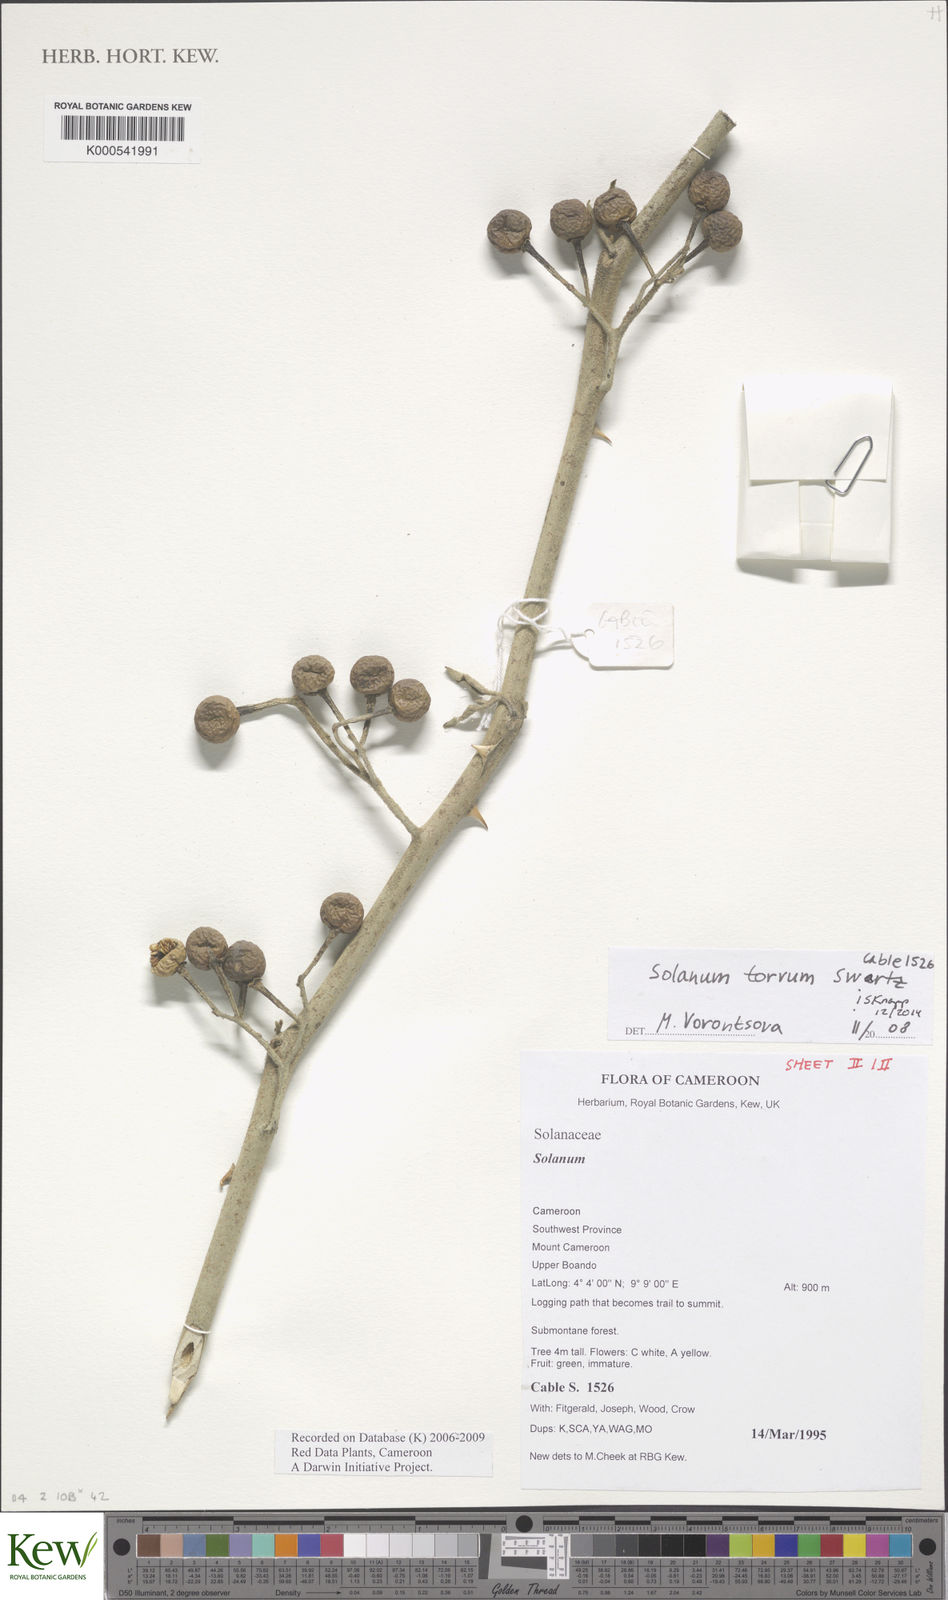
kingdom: Plantae
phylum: Tracheophyta
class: Magnoliopsida
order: Solanales
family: Solanaceae
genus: Solanum
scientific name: Solanum torvum
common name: Turkey berry
